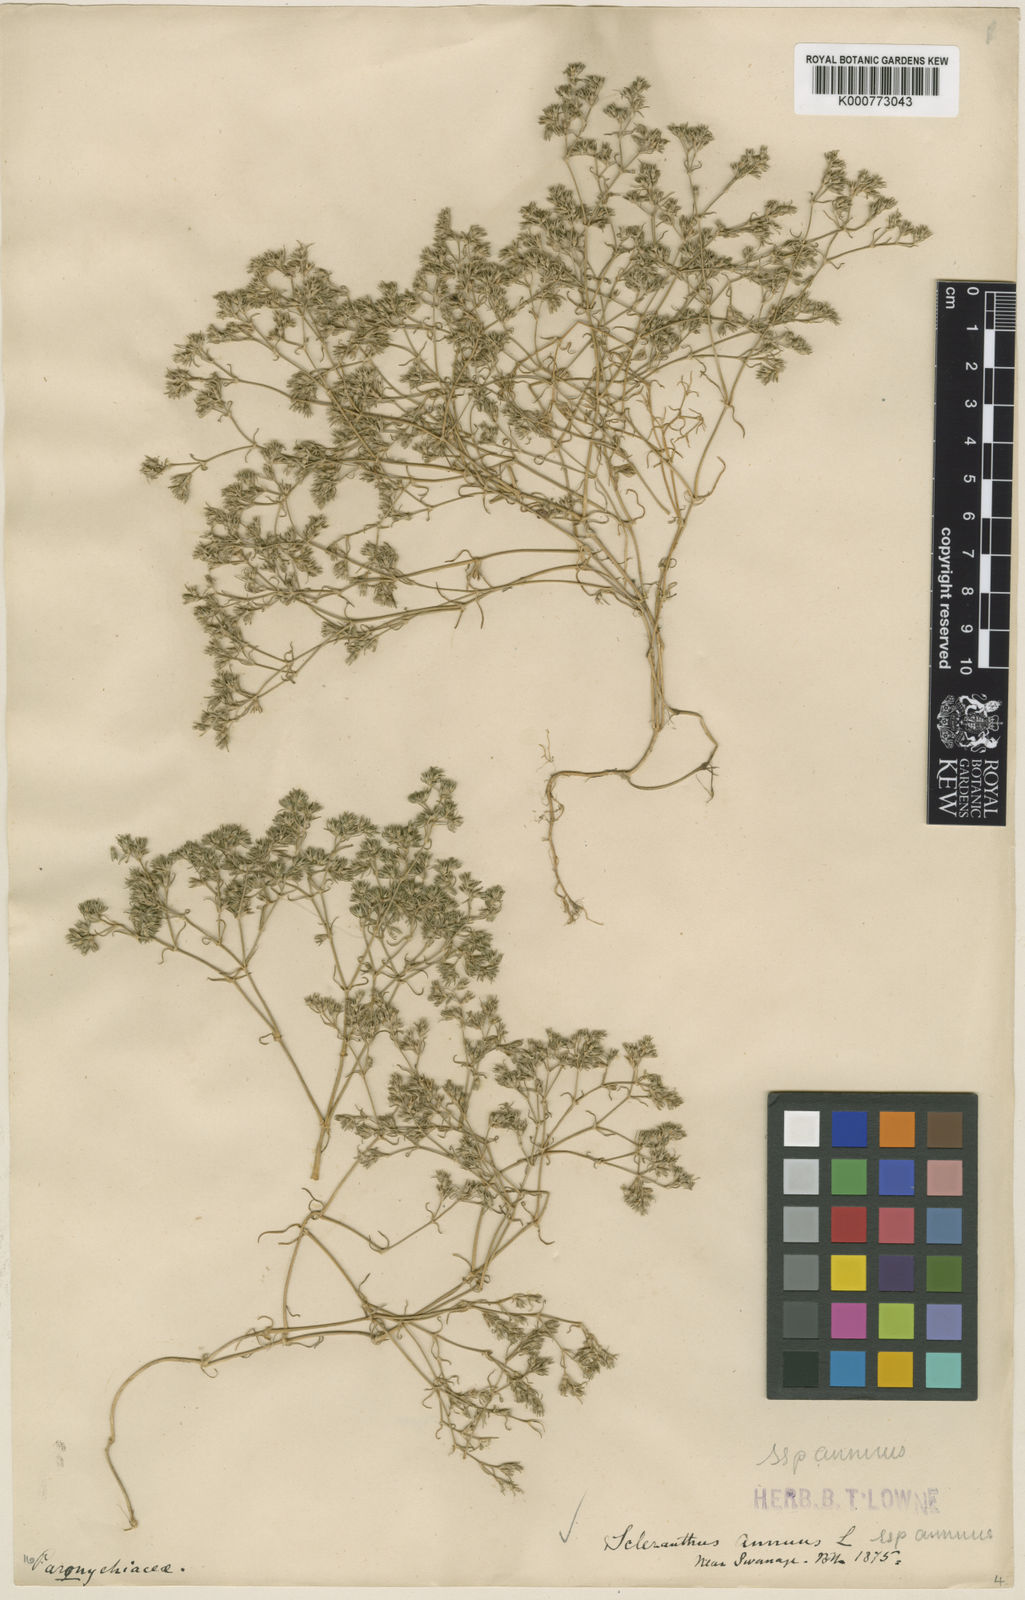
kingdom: Plantae
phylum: Tracheophyta
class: Magnoliopsida
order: Caryophyllales
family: Caryophyllaceae
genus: Scleranthus
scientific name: Scleranthus annuus
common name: Annual knawel
